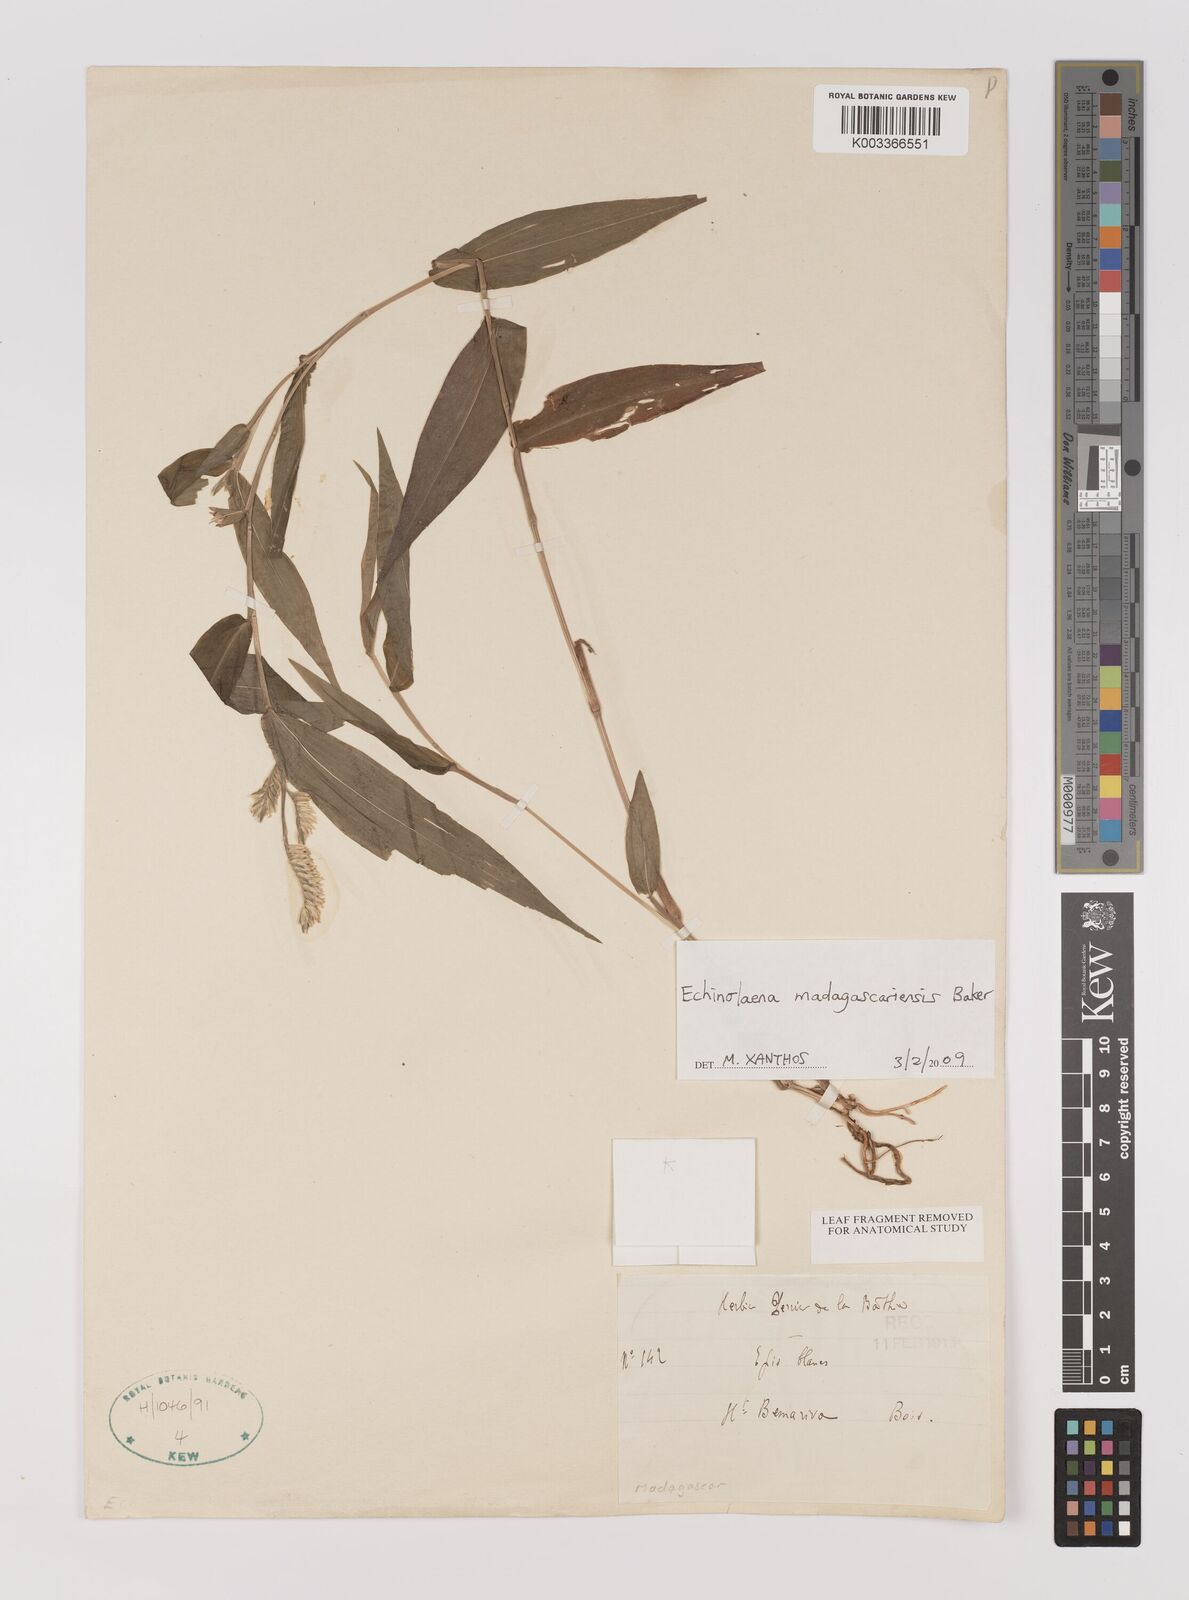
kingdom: Plantae
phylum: Tracheophyta
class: Liliopsida
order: Poales
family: Poaceae
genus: Chasechloa
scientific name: Chasechloa madagascariensis
